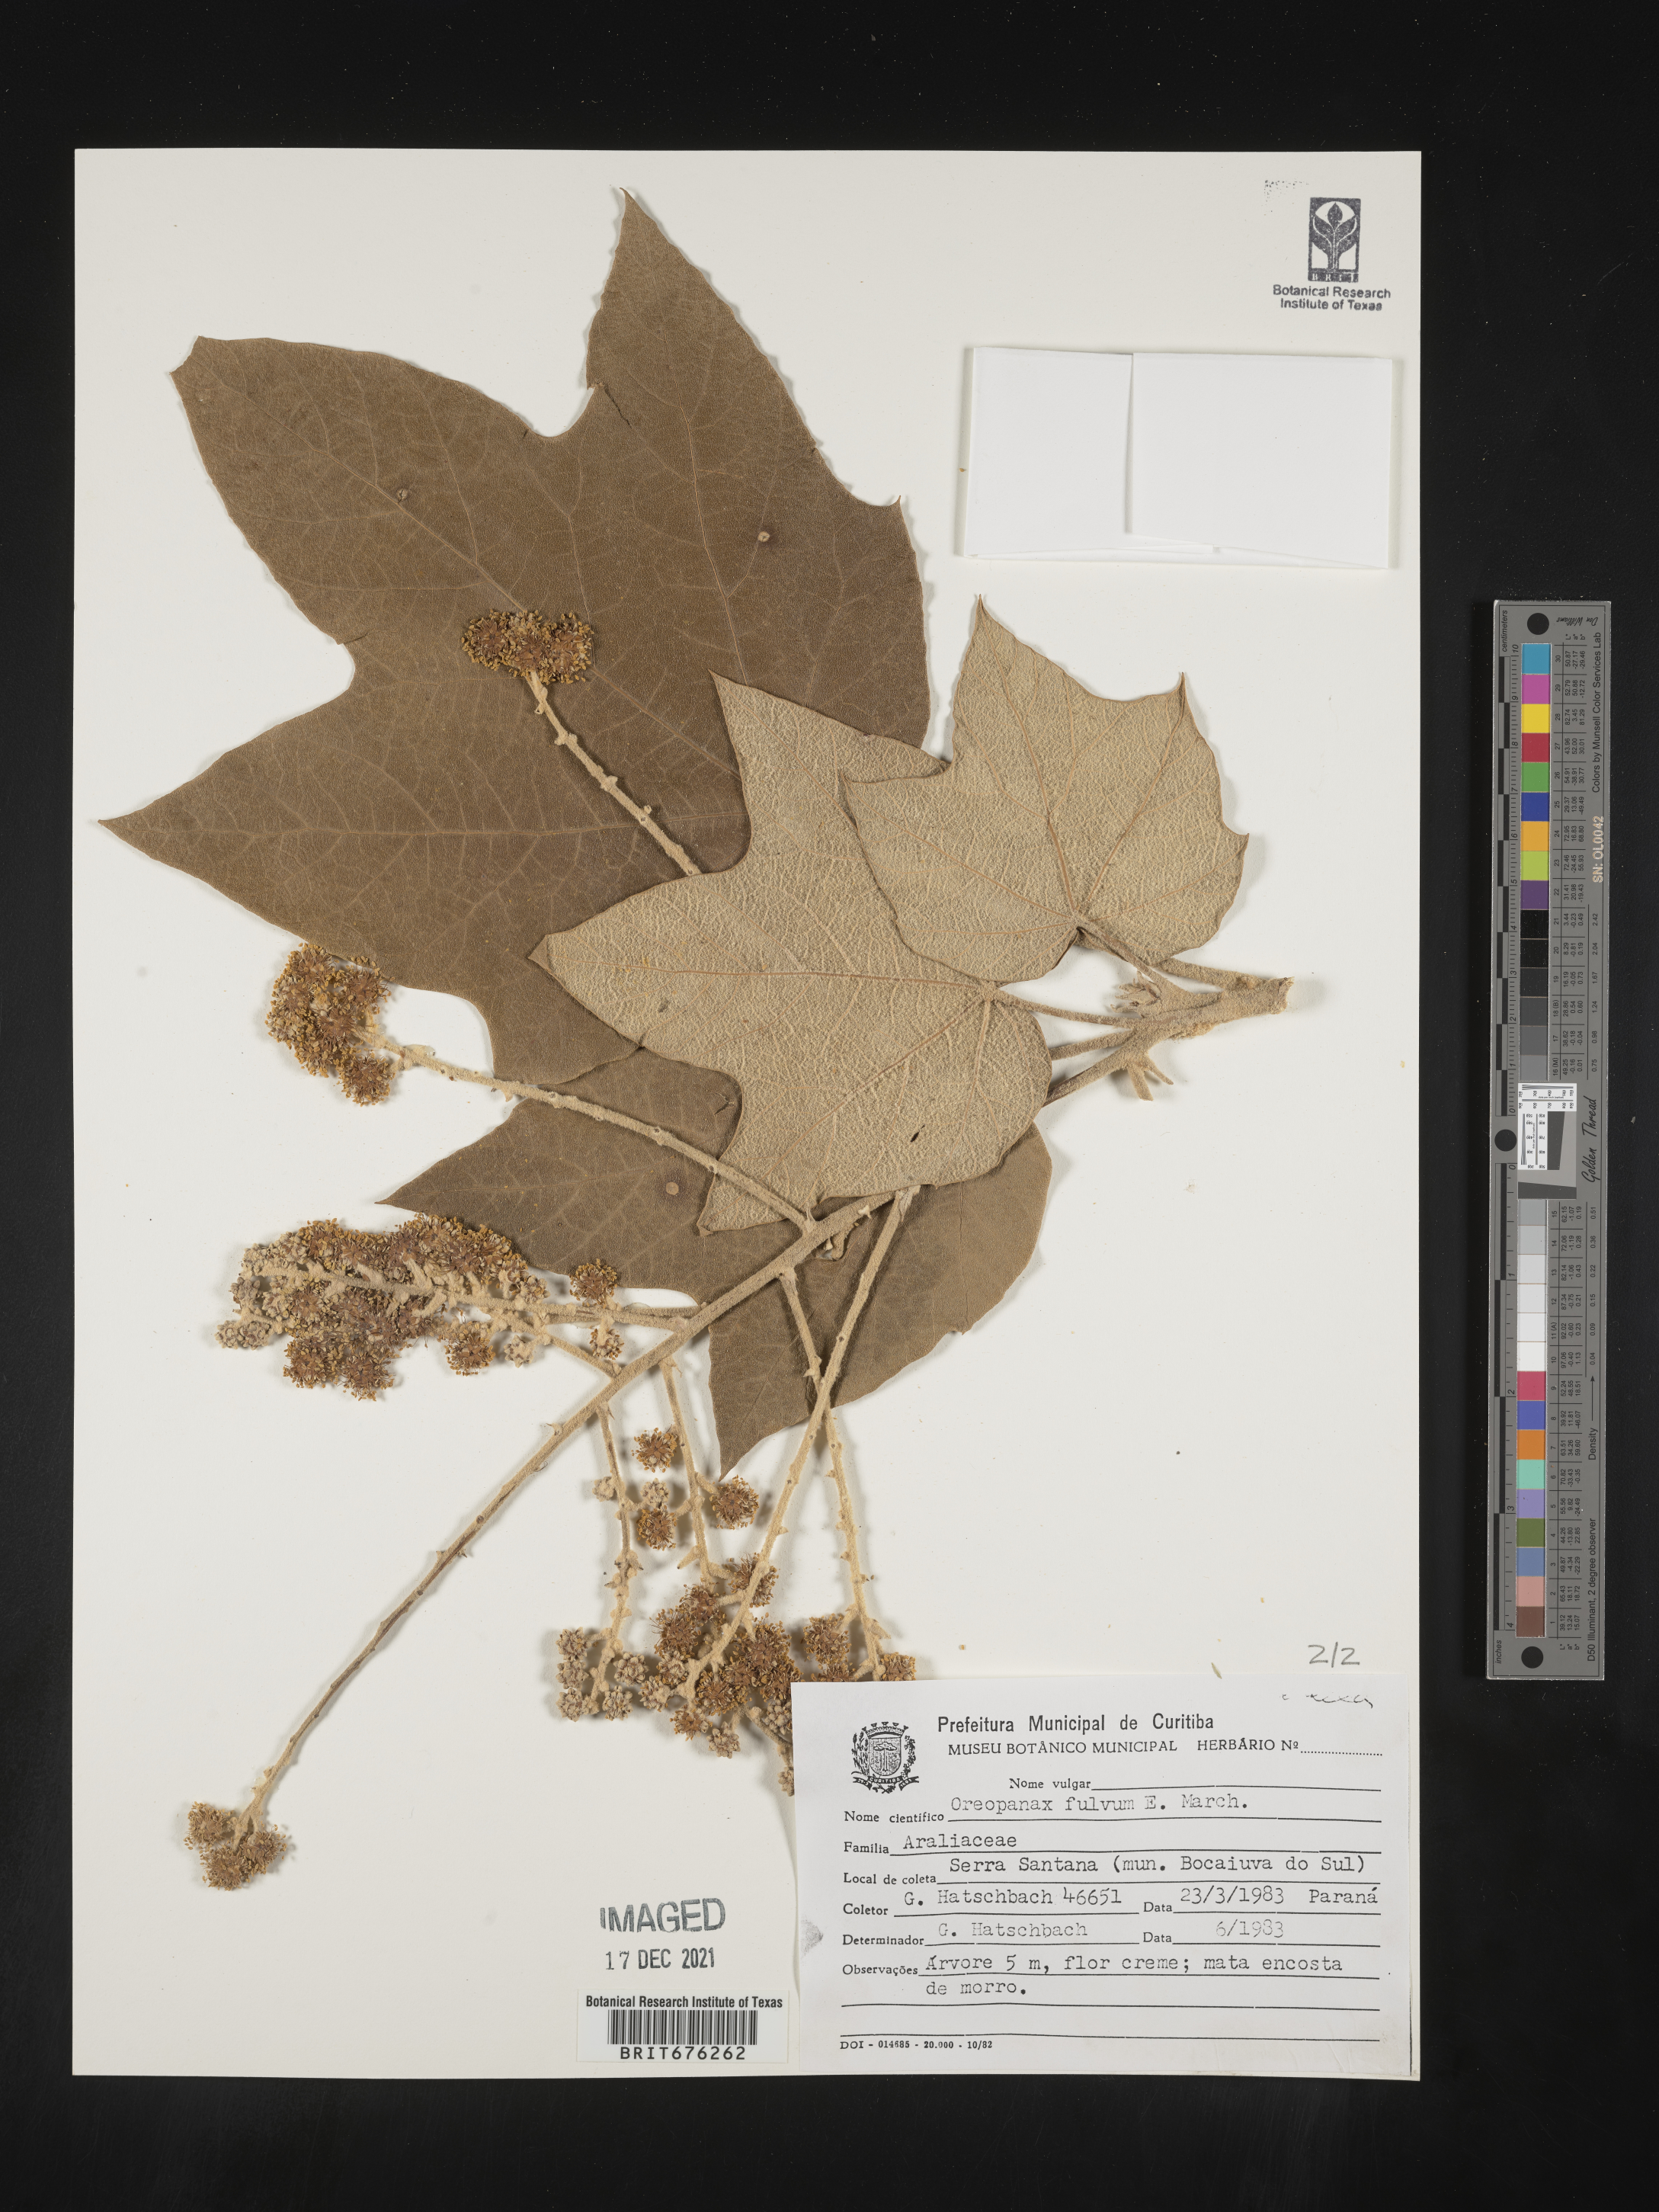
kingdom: Plantae
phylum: Tracheophyta
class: Magnoliopsida
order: Apiales
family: Araliaceae
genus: Oreopanax
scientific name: Oreopanax
